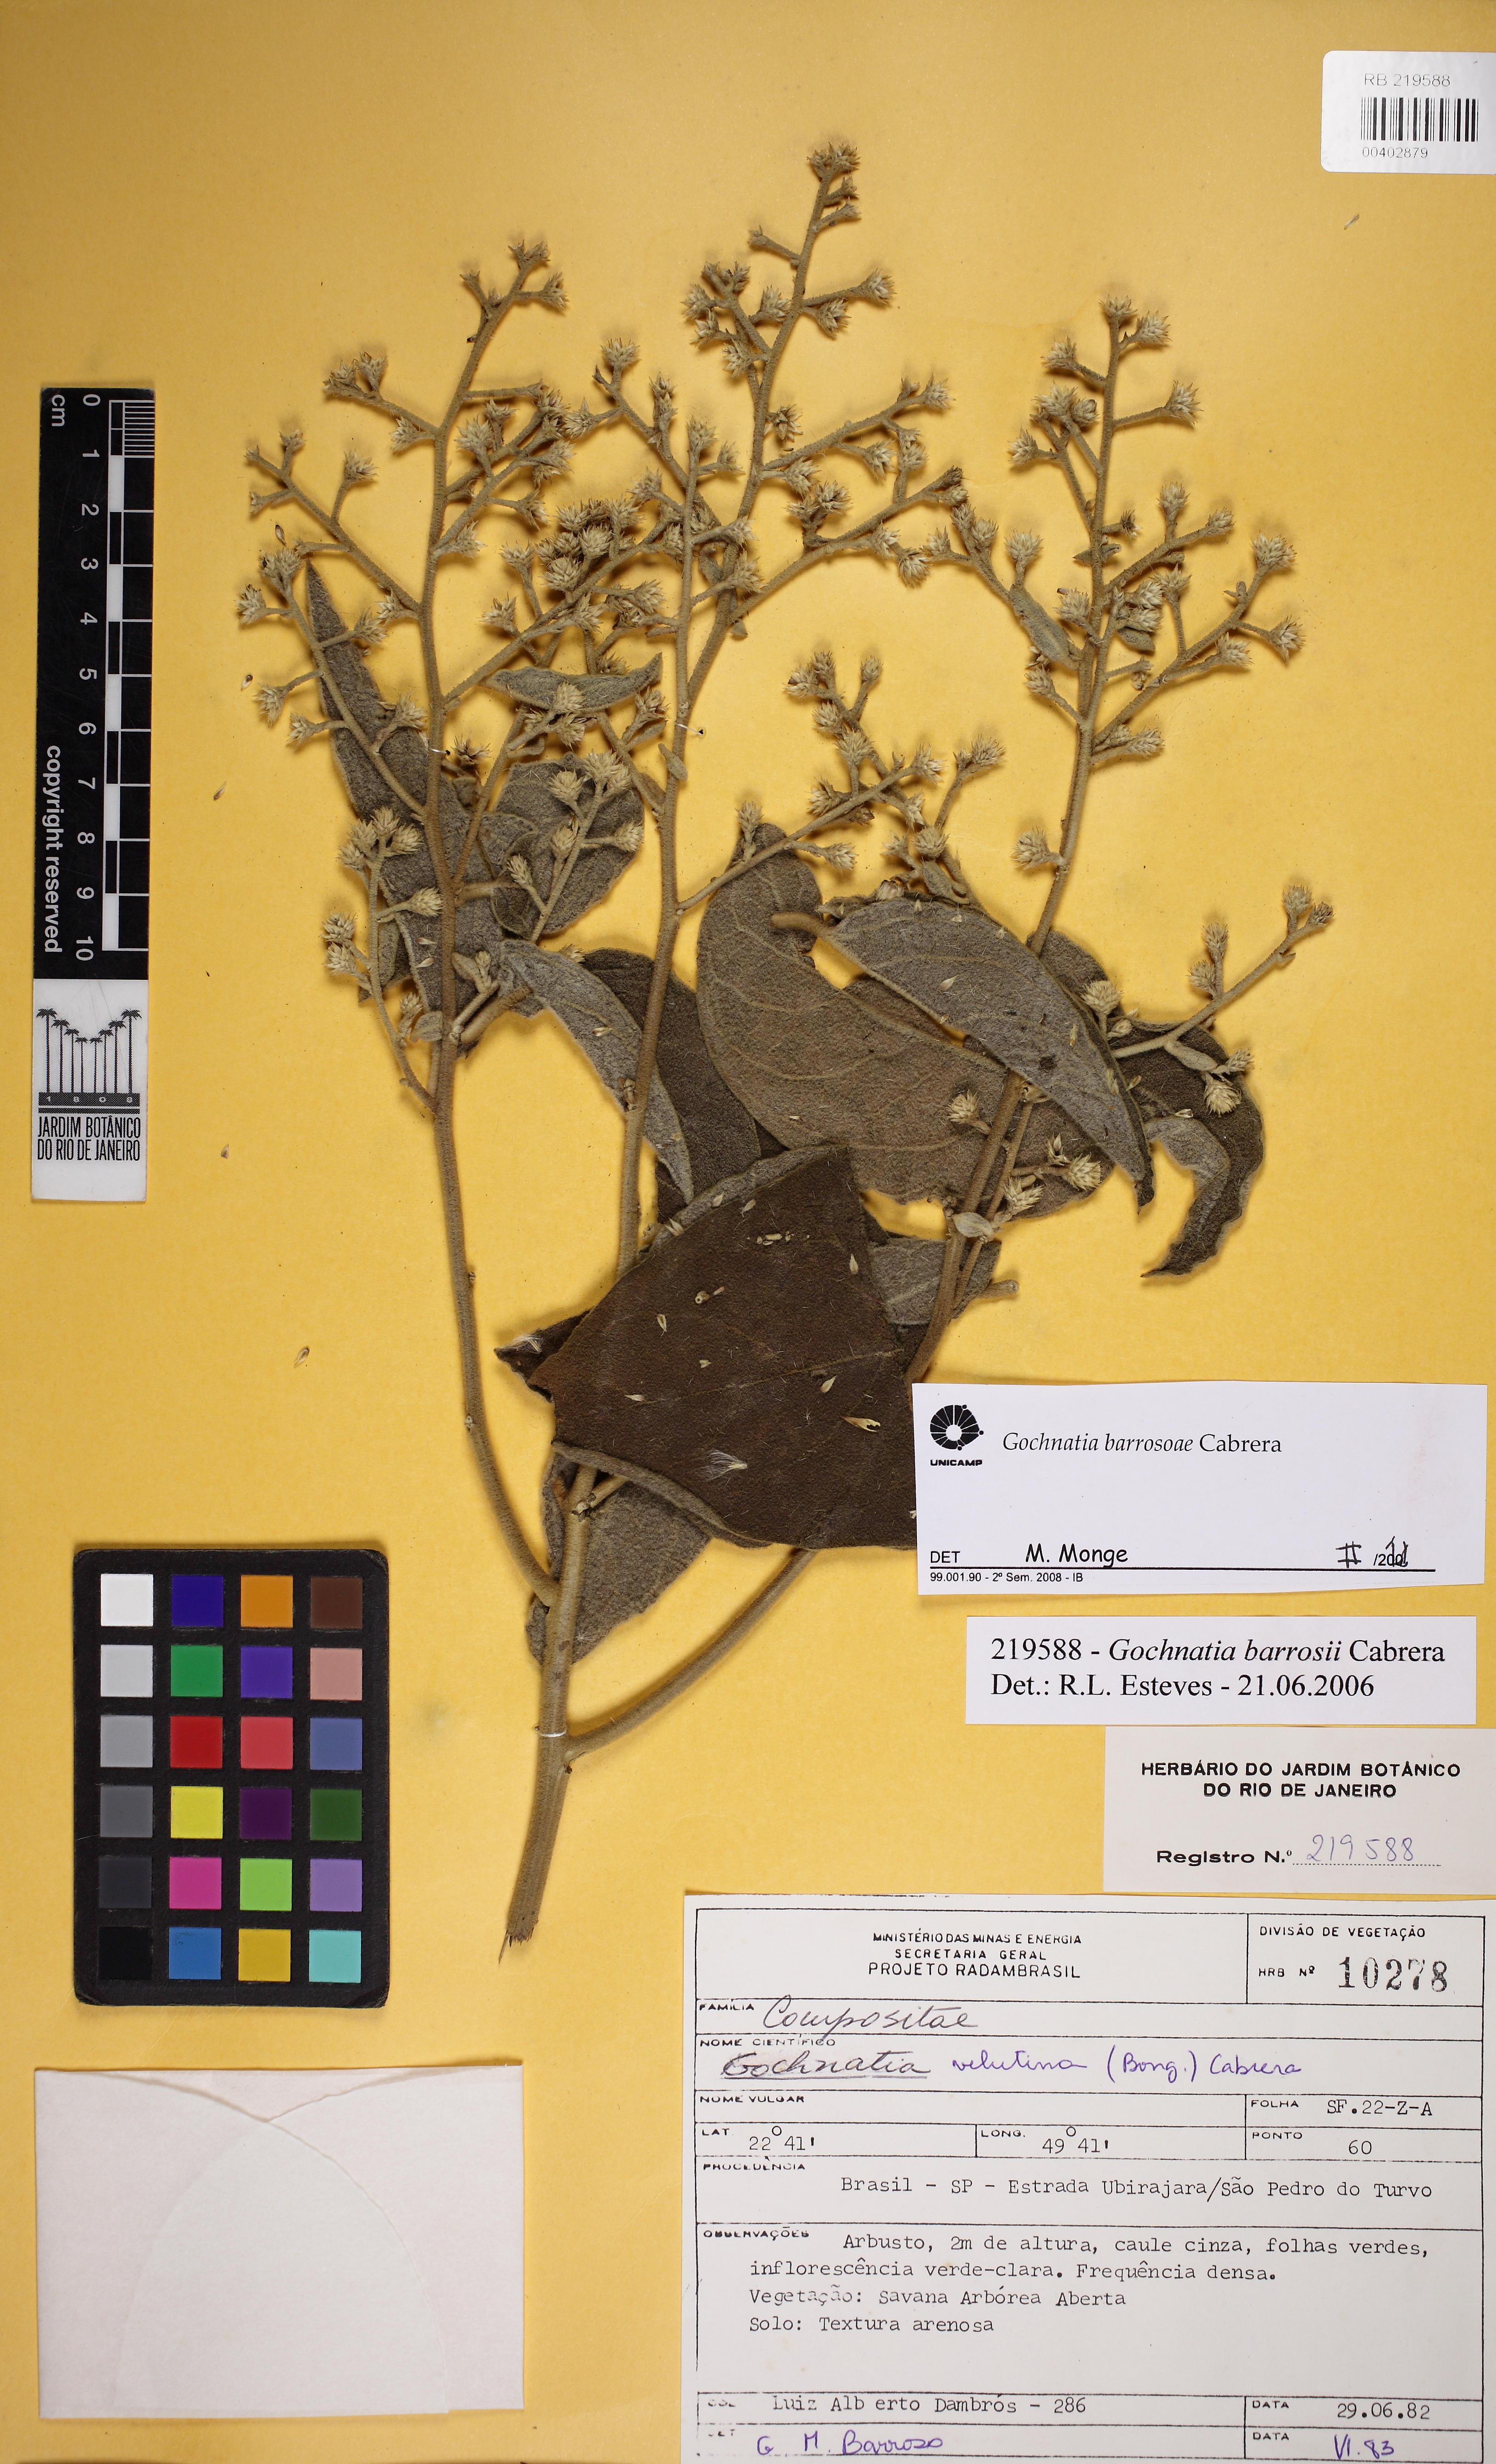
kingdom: Plantae
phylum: Tracheophyta
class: Magnoliopsida
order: Asterales
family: Asteraceae
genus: Moquiniastrum
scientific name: Moquiniastrum barrosoae
